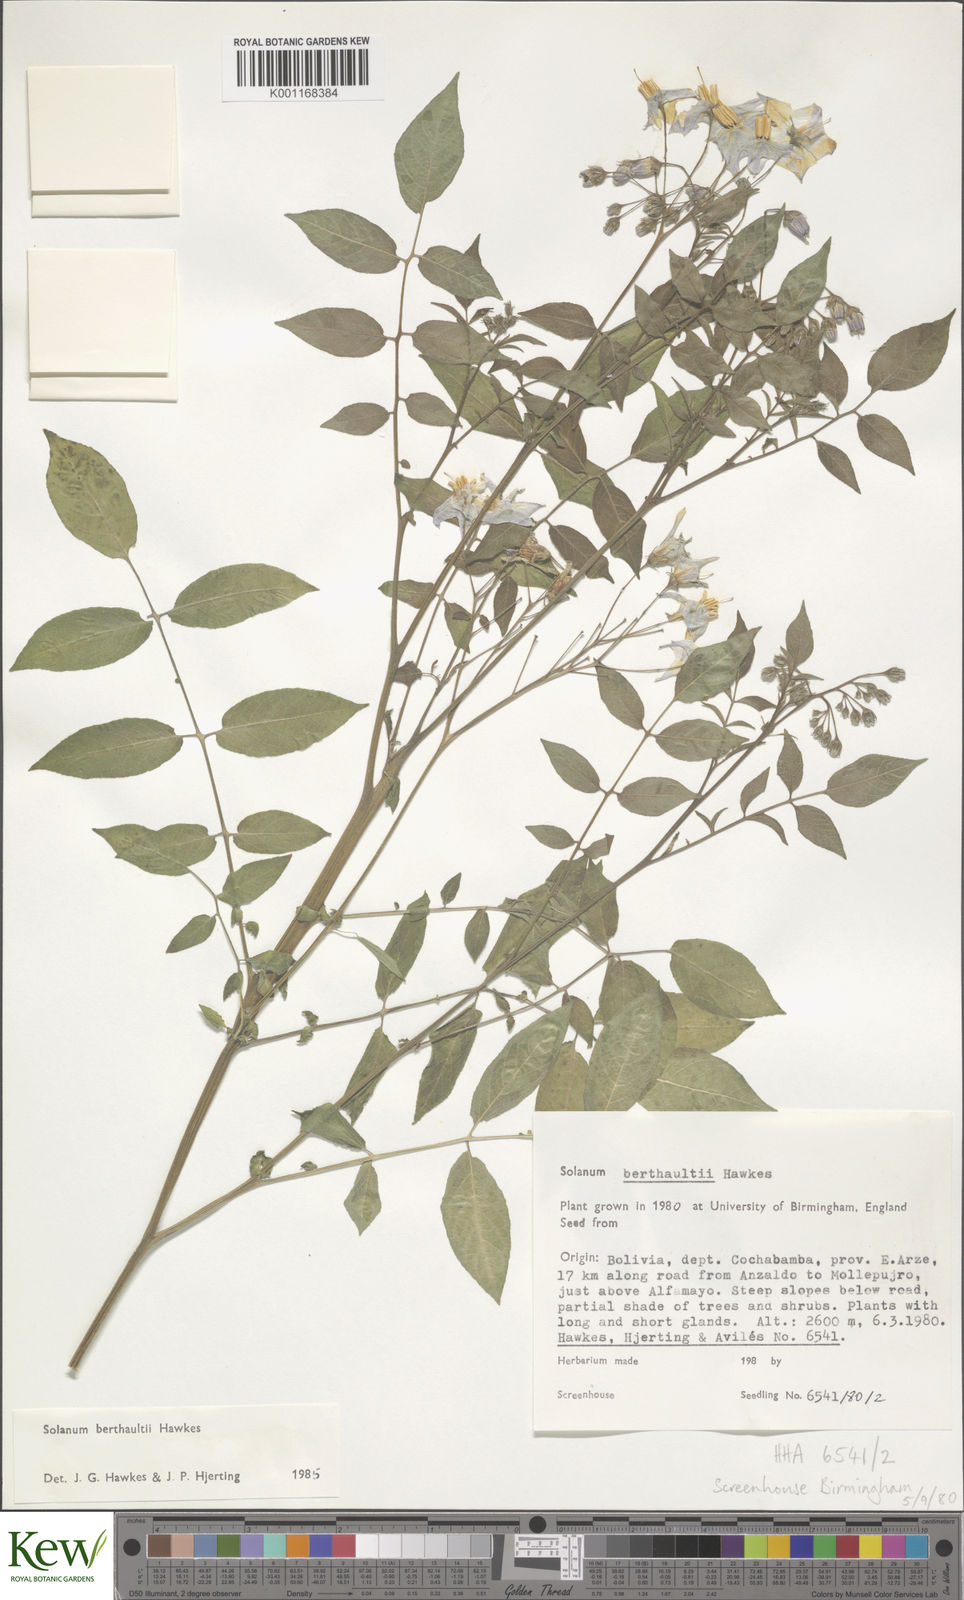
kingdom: Plantae
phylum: Tracheophyta
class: Magnoliopsida
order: Solanales
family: Solanaceae
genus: Solanum
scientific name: Solanum berthaultii
